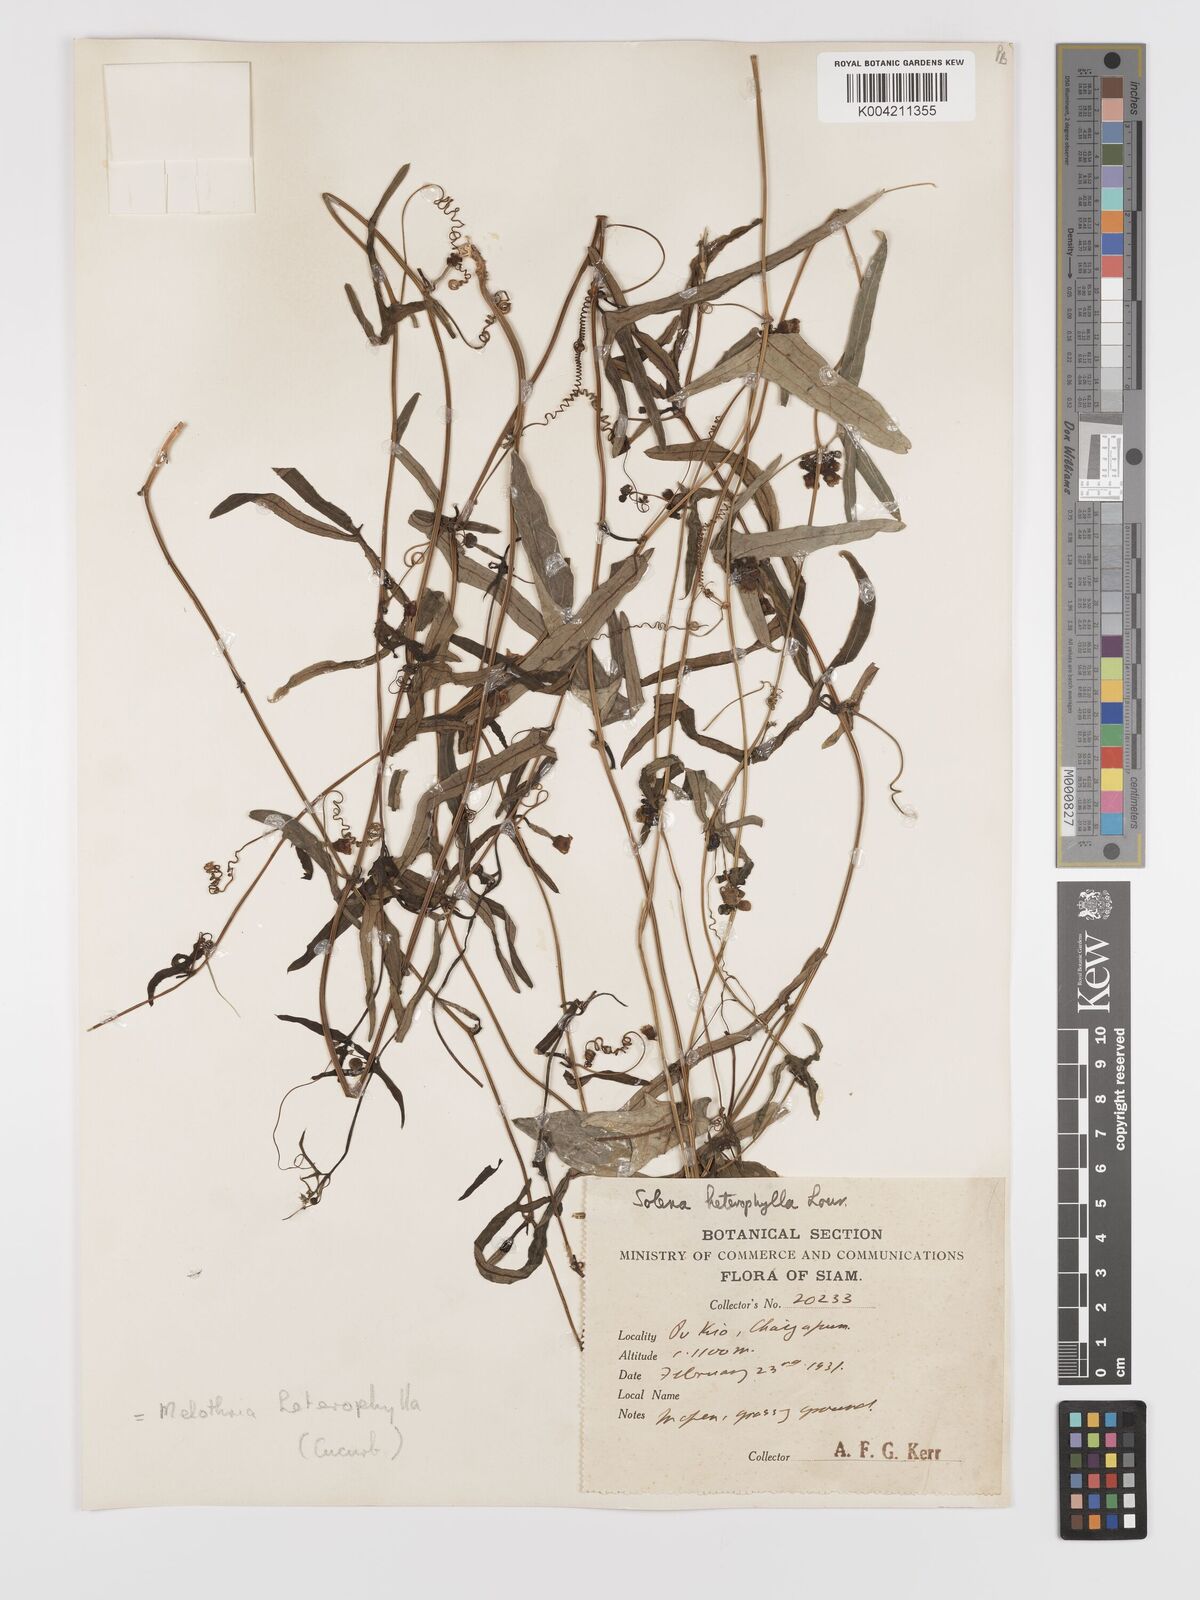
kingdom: Plantae
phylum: Tracheophyta
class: Magnoliopsida
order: Cucurbitales
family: Cucurbitaceae
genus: Solena
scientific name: Solena amplexicaulis
